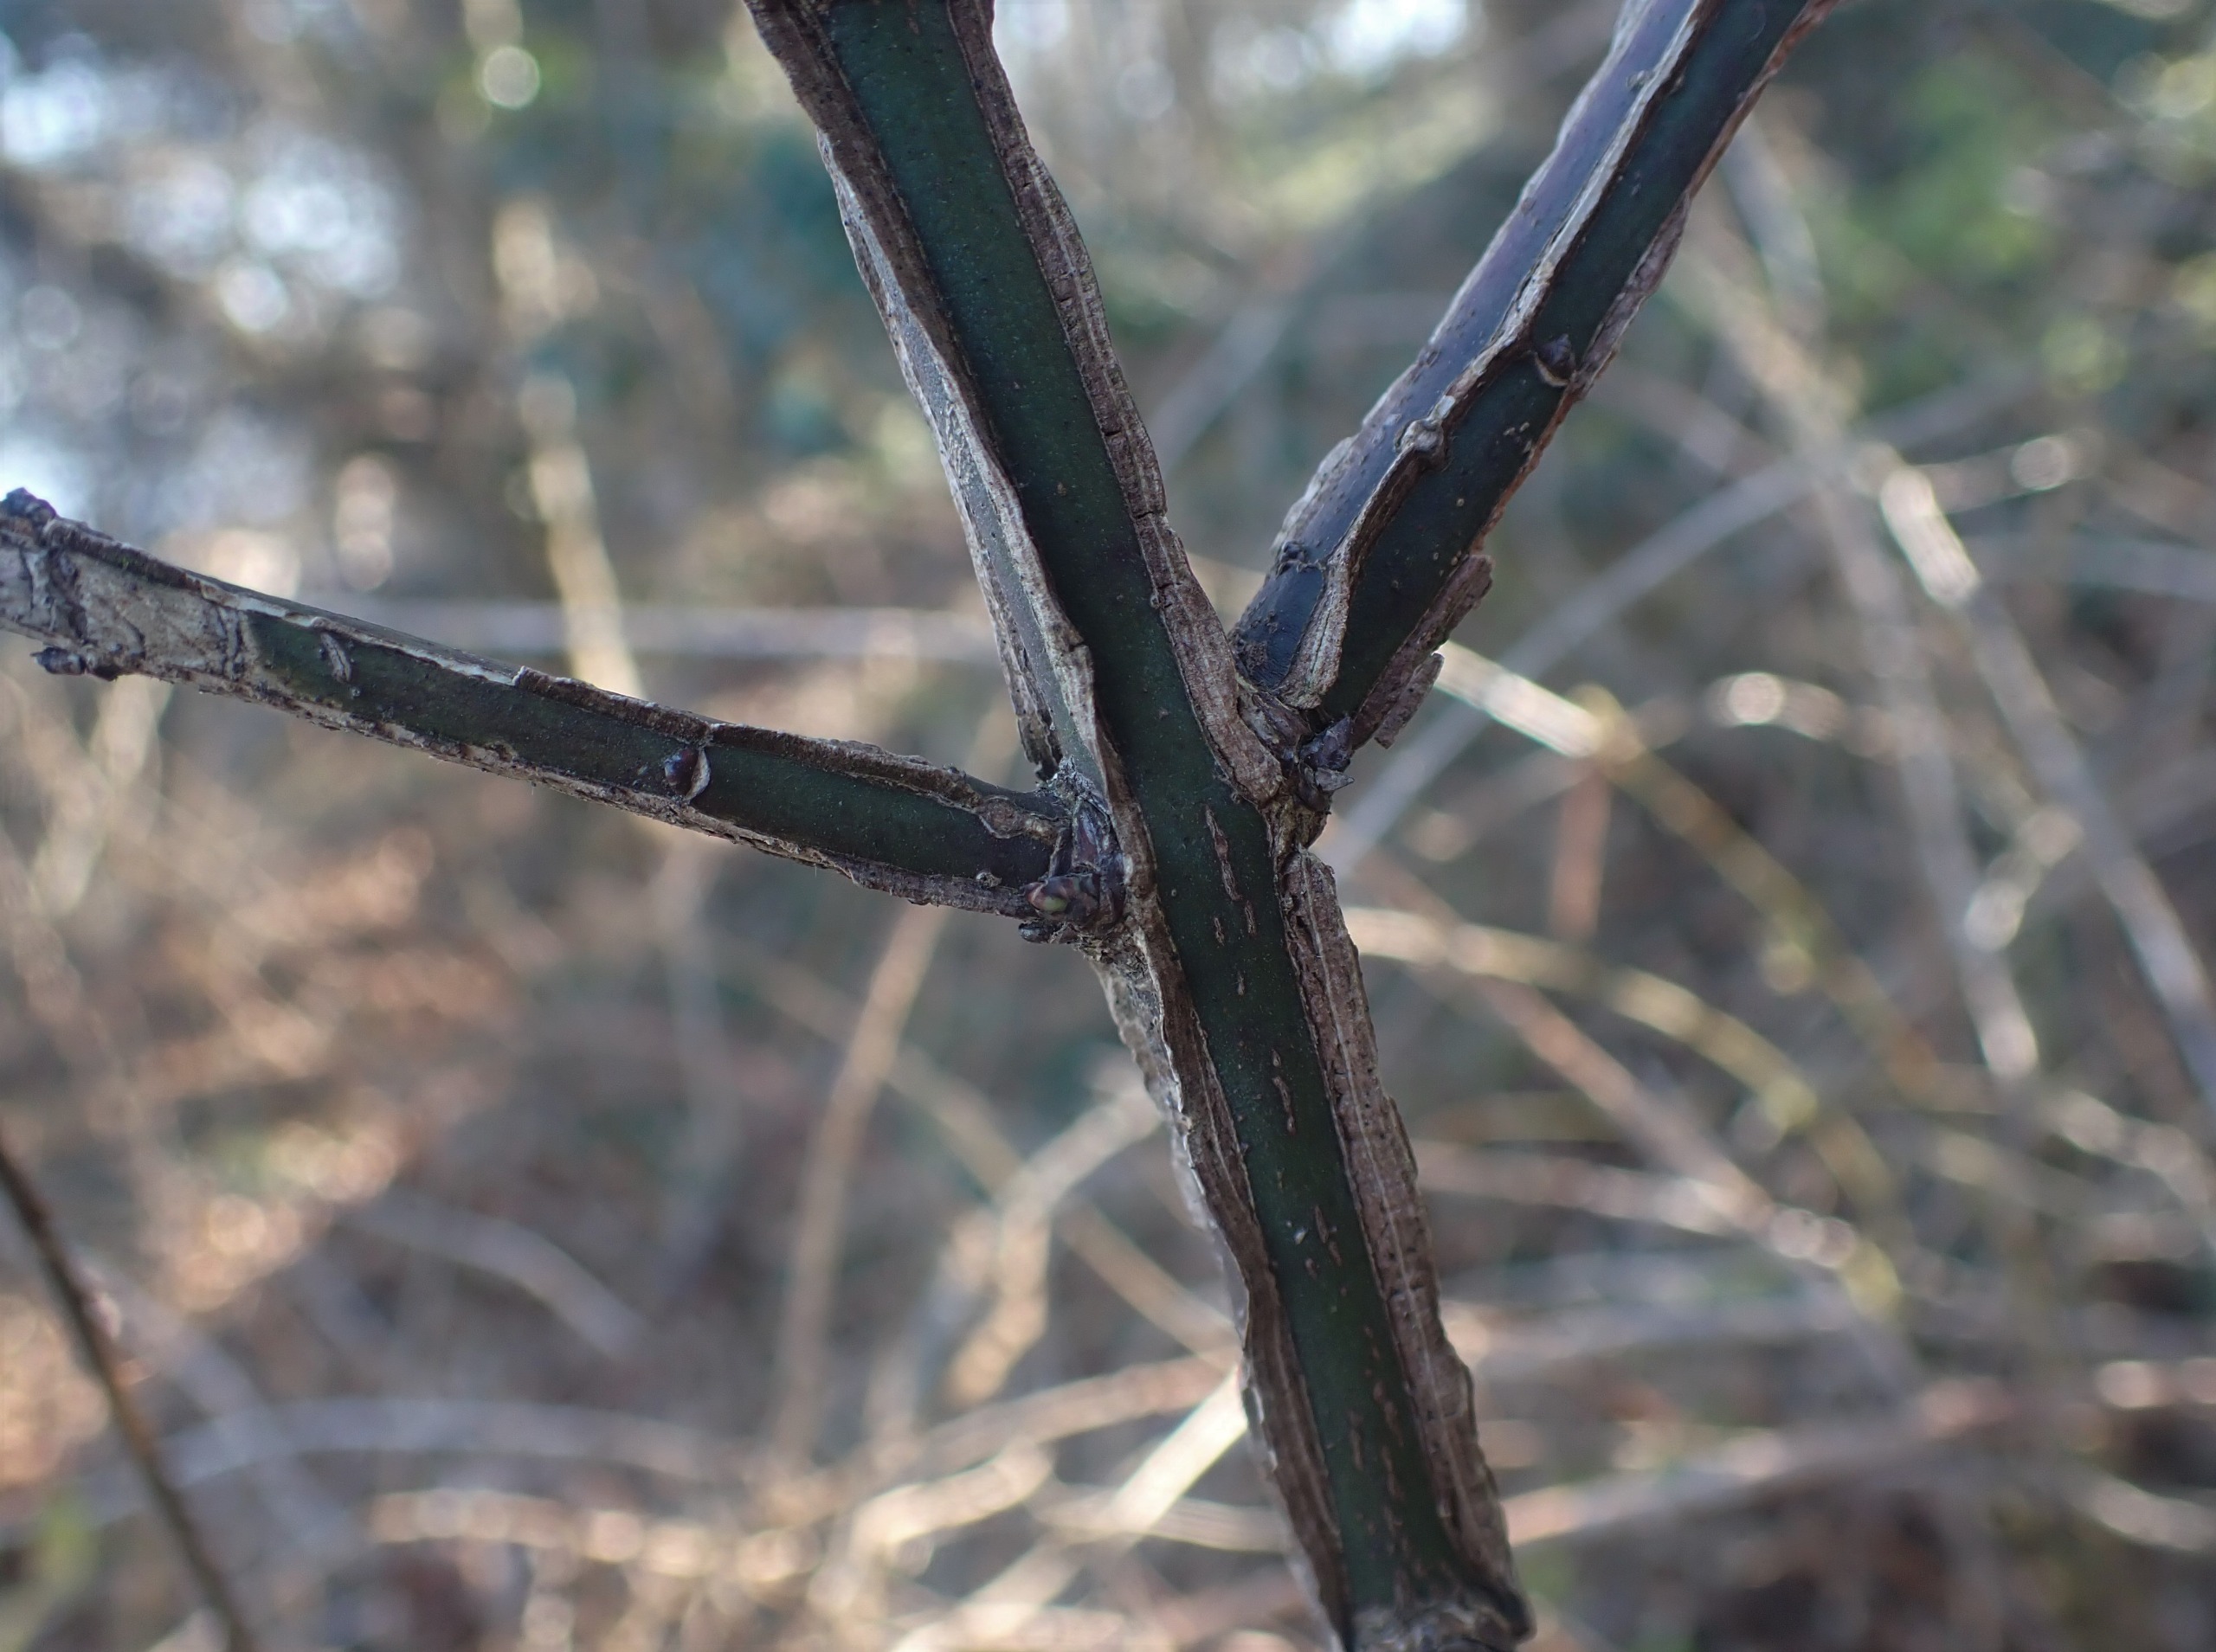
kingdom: Plantae
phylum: Tracheophyta
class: Magnoliopsida
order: Celastrales
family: Celastraceae
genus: Euonymus
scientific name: Euonymus europaeus
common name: Benved
